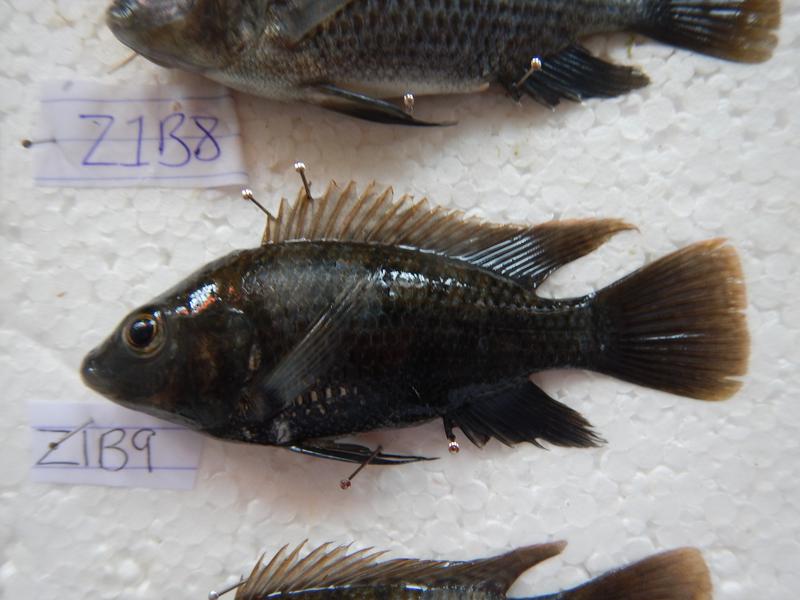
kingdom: Animalia
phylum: Chordata
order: Perciformes
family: Cichlidae
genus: Oreochromis
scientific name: Oreochromis urolepis
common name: Wami tilapia
